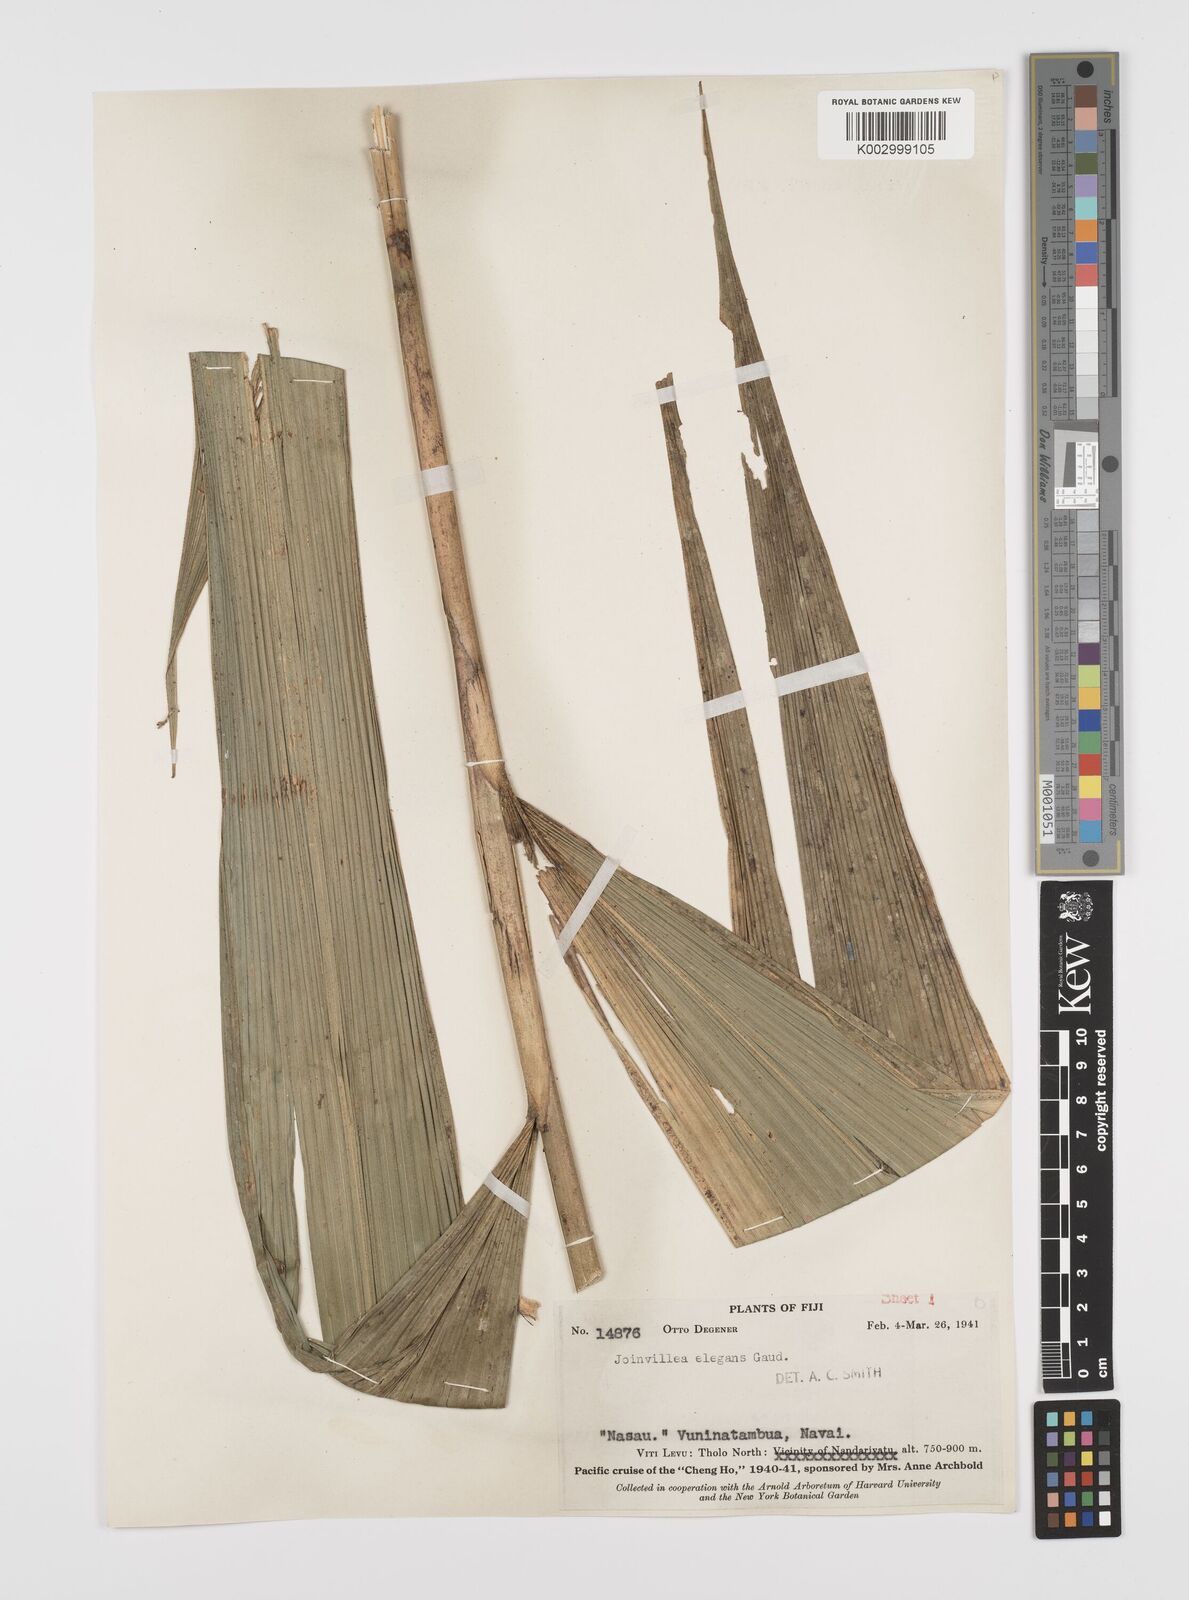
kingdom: Plantae
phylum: Tracheophyta
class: Liliopsida
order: Poales
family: Joinvilleaceae
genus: Joinvillea
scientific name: Joinvillea plicata
